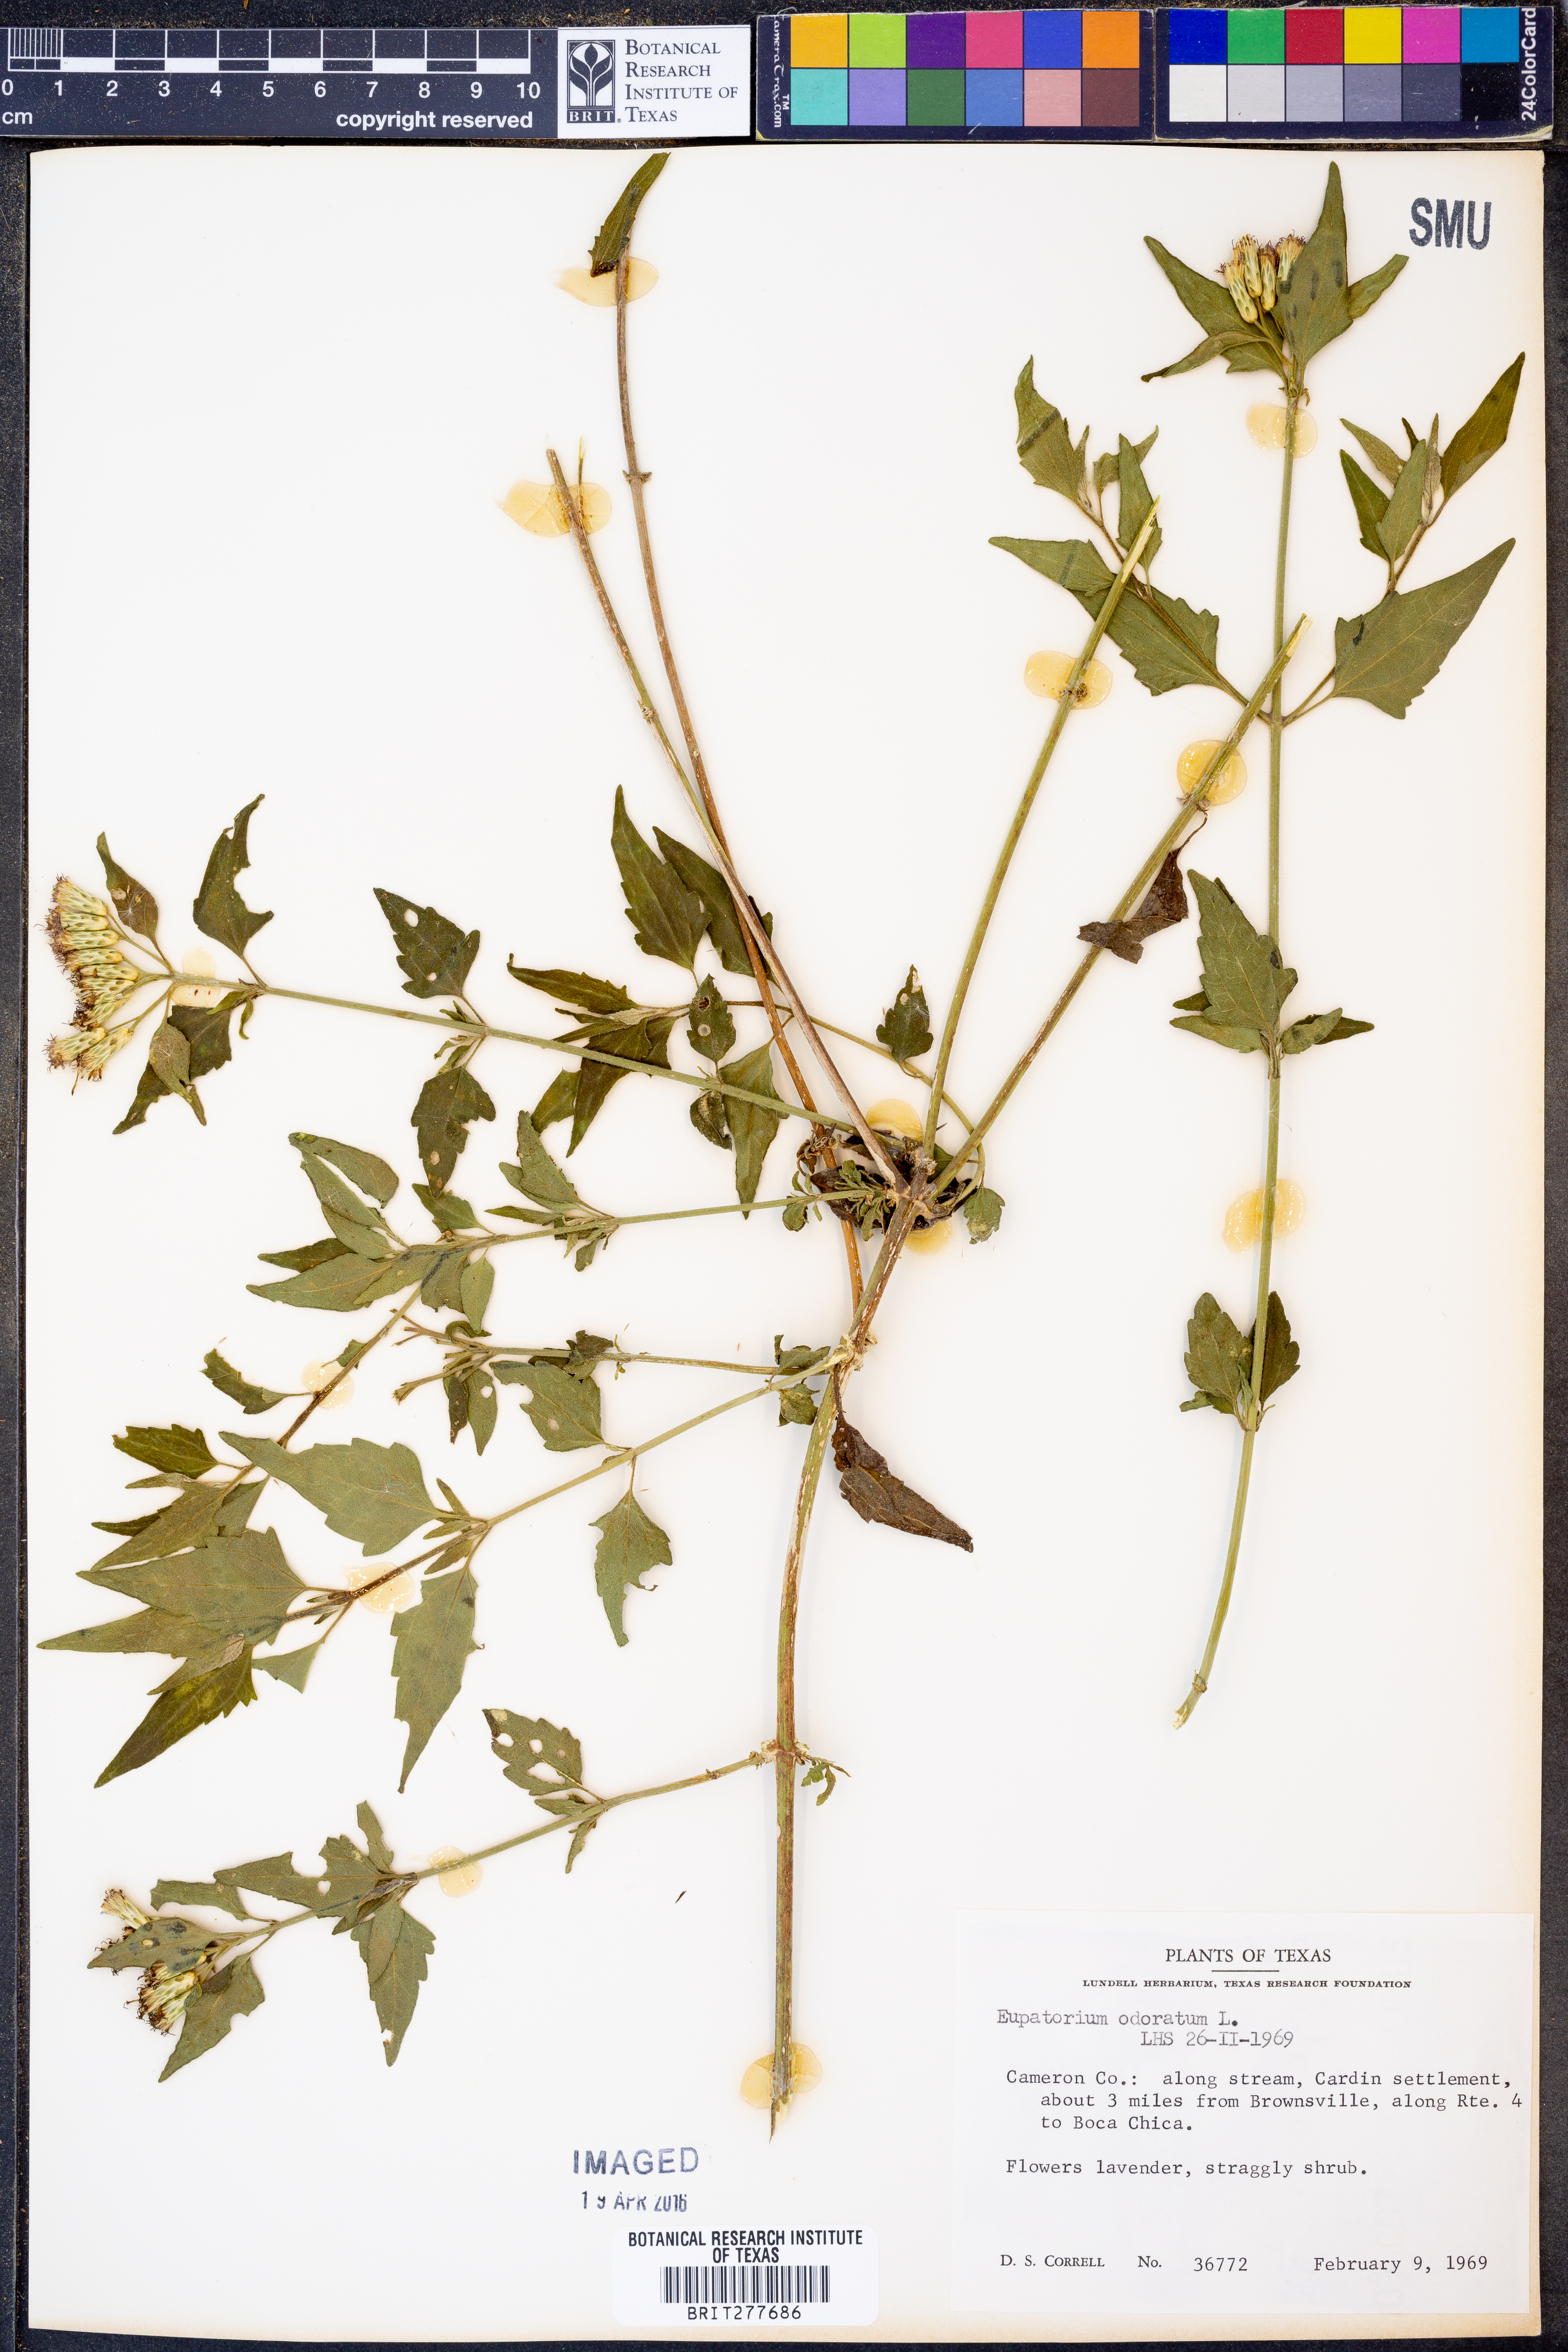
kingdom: Plantae
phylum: Tracheophyta
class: Magnoliopsida
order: Asterales
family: Asteraceae
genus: Ageratina
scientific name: Ageratina altissima
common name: White snakeroot
